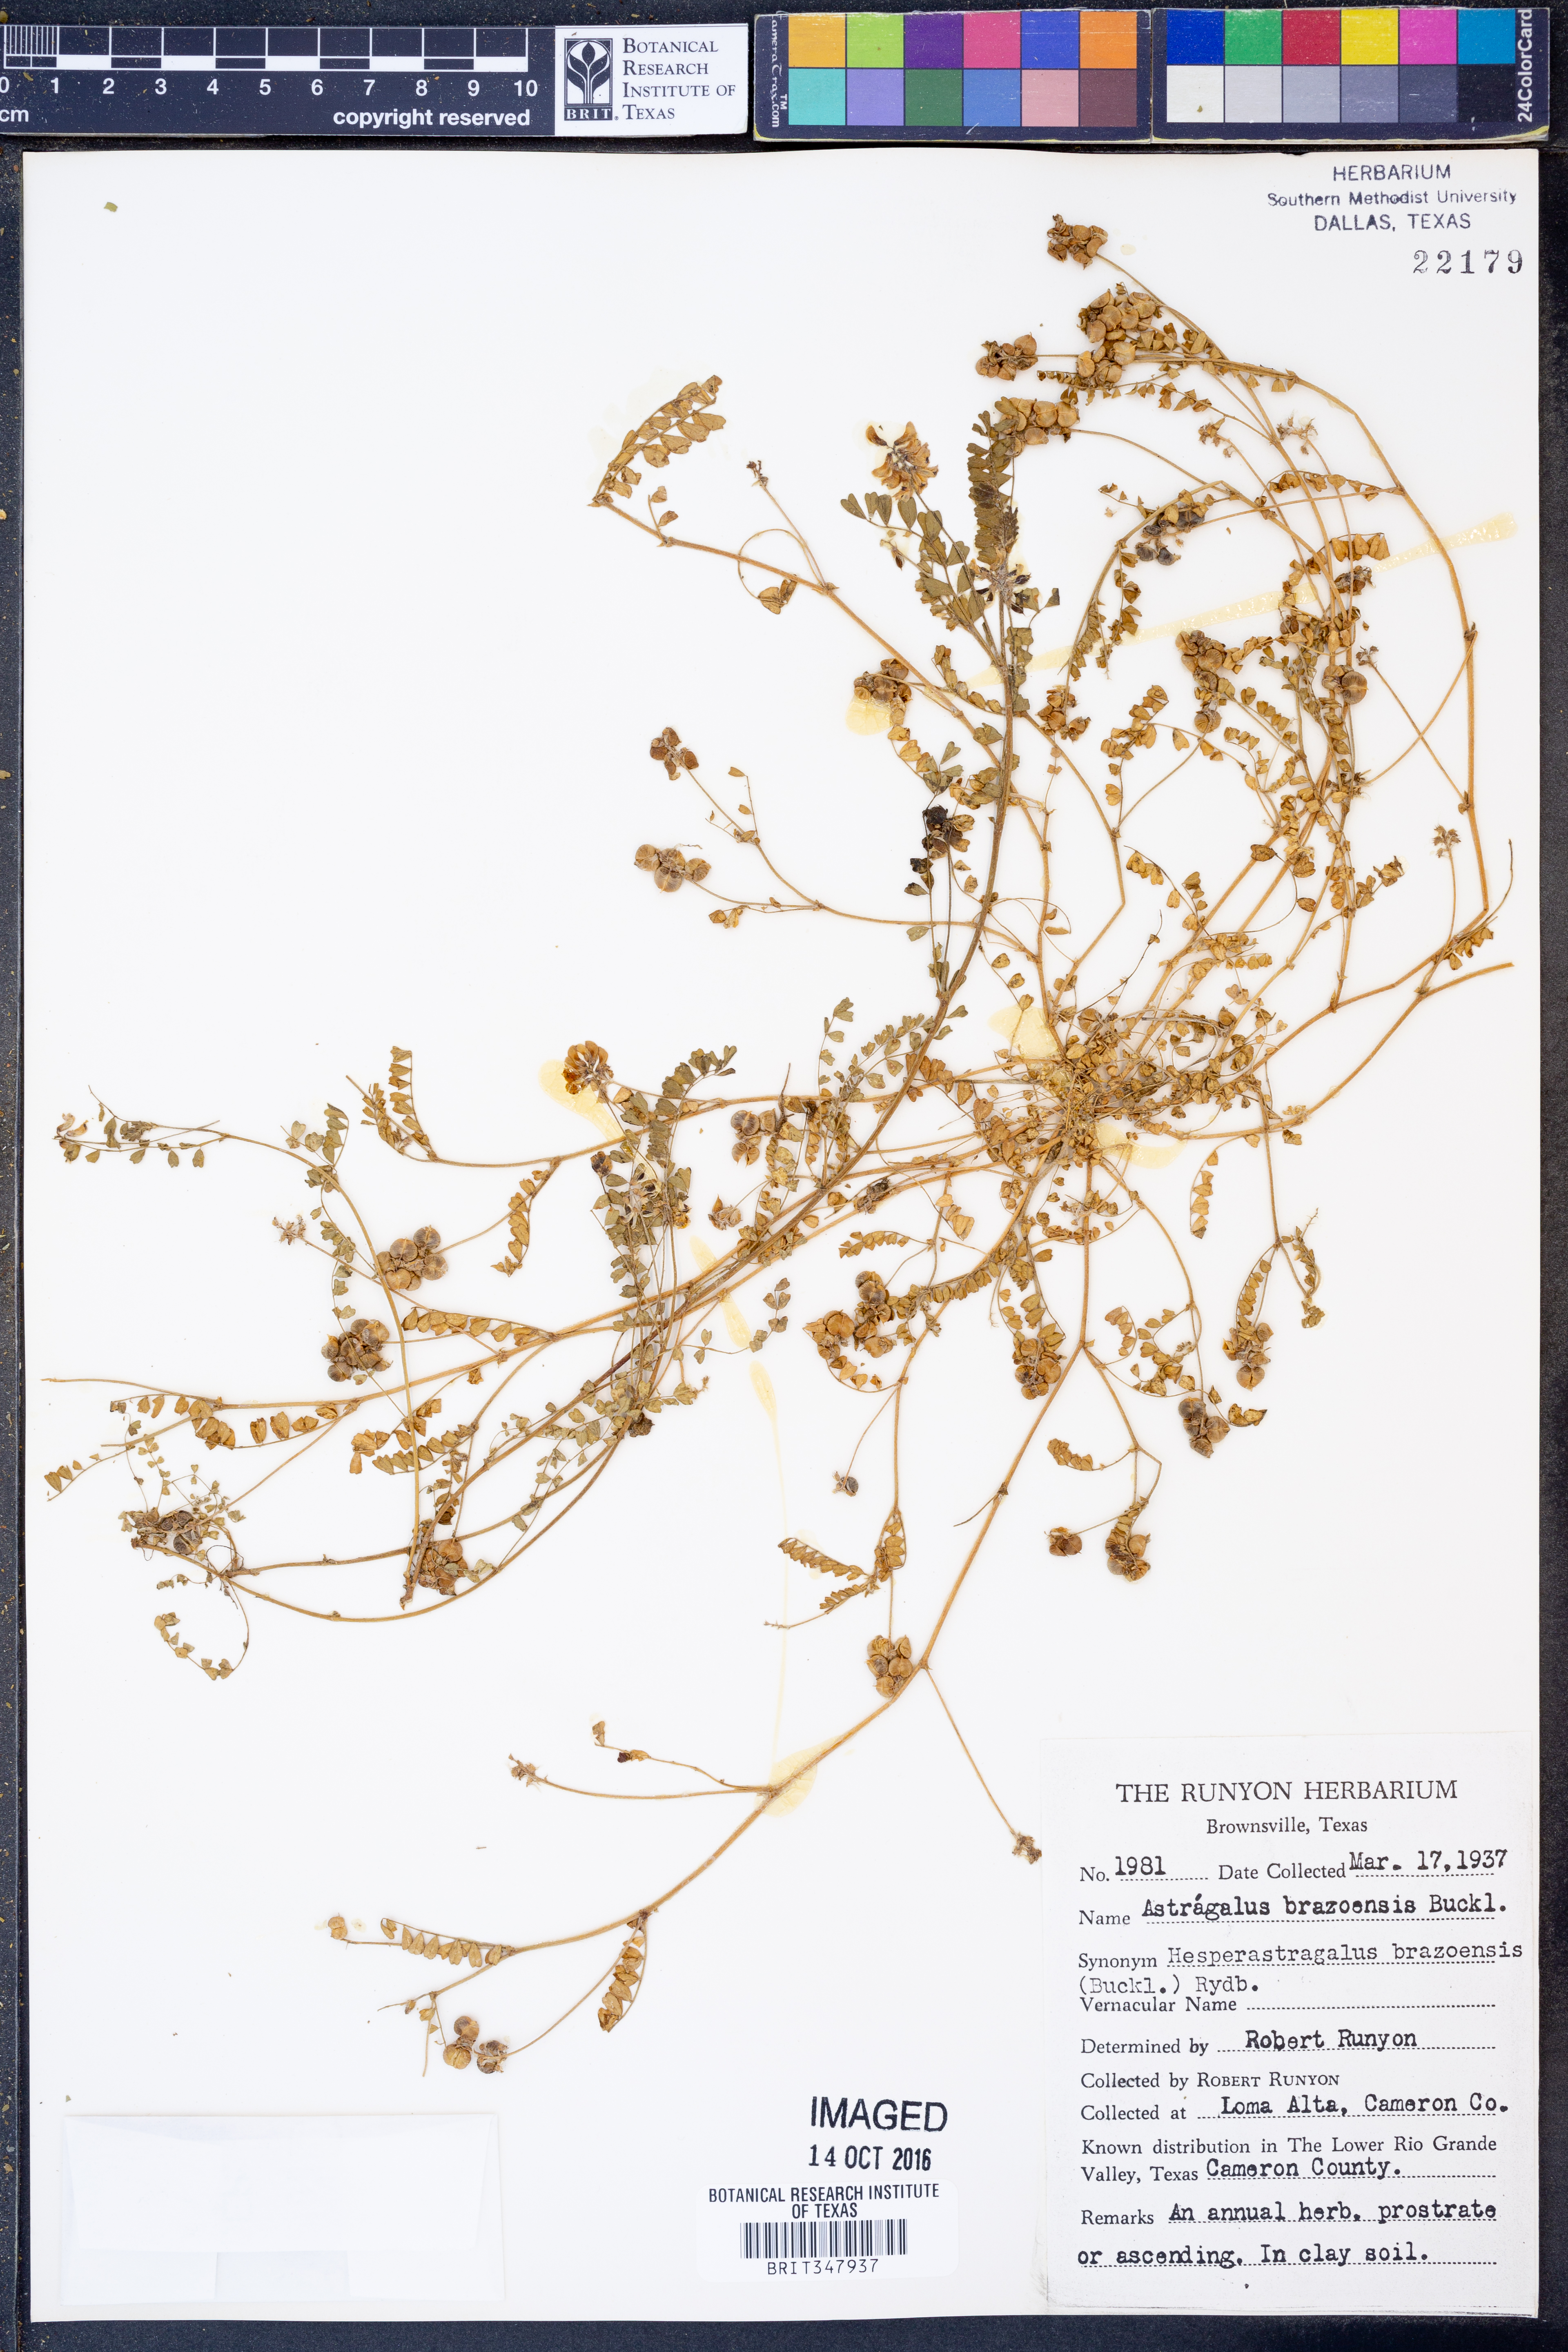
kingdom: Plantae
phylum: Tracheophyta
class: Magnoliopsida
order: Fabales
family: Fabaceae
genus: Astragalus
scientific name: Astragalus brazoensis
